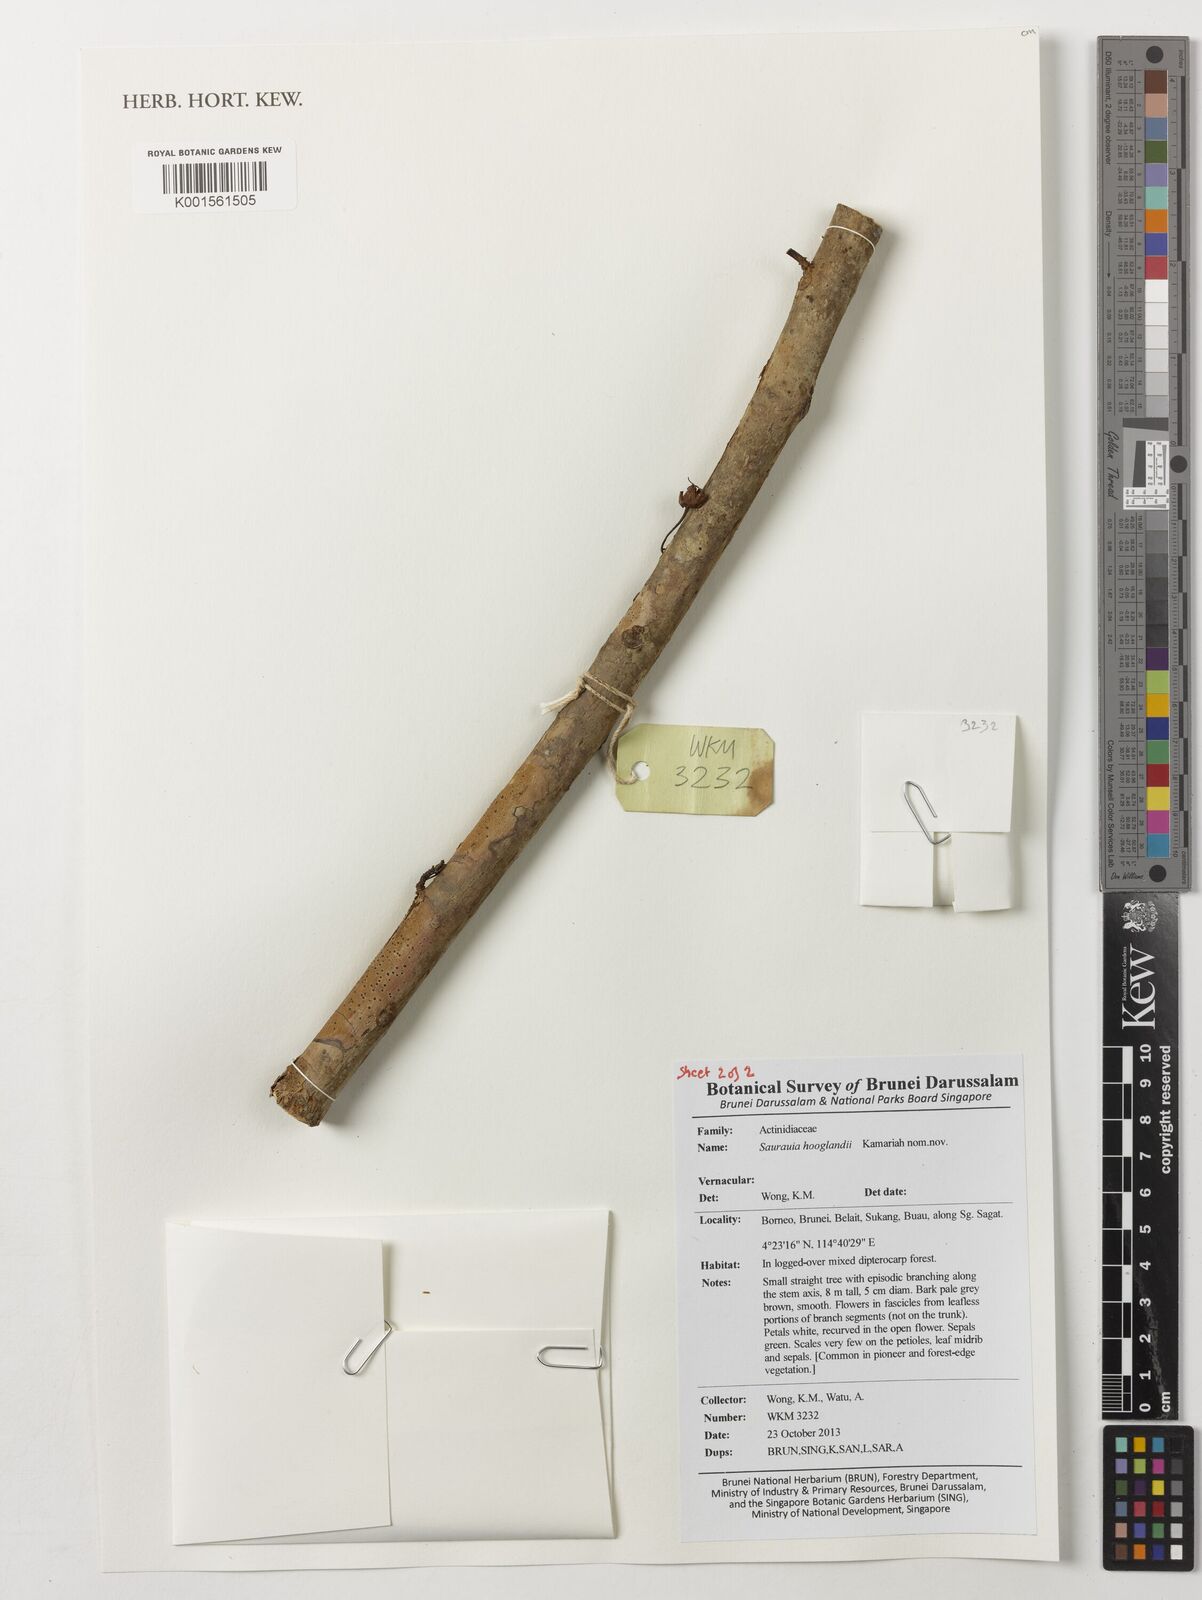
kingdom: Plantae
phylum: Tracheophyta
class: Magnoliopsida
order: Ericales
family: Actinidiaceae
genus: Saurauia
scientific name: Saurauia
